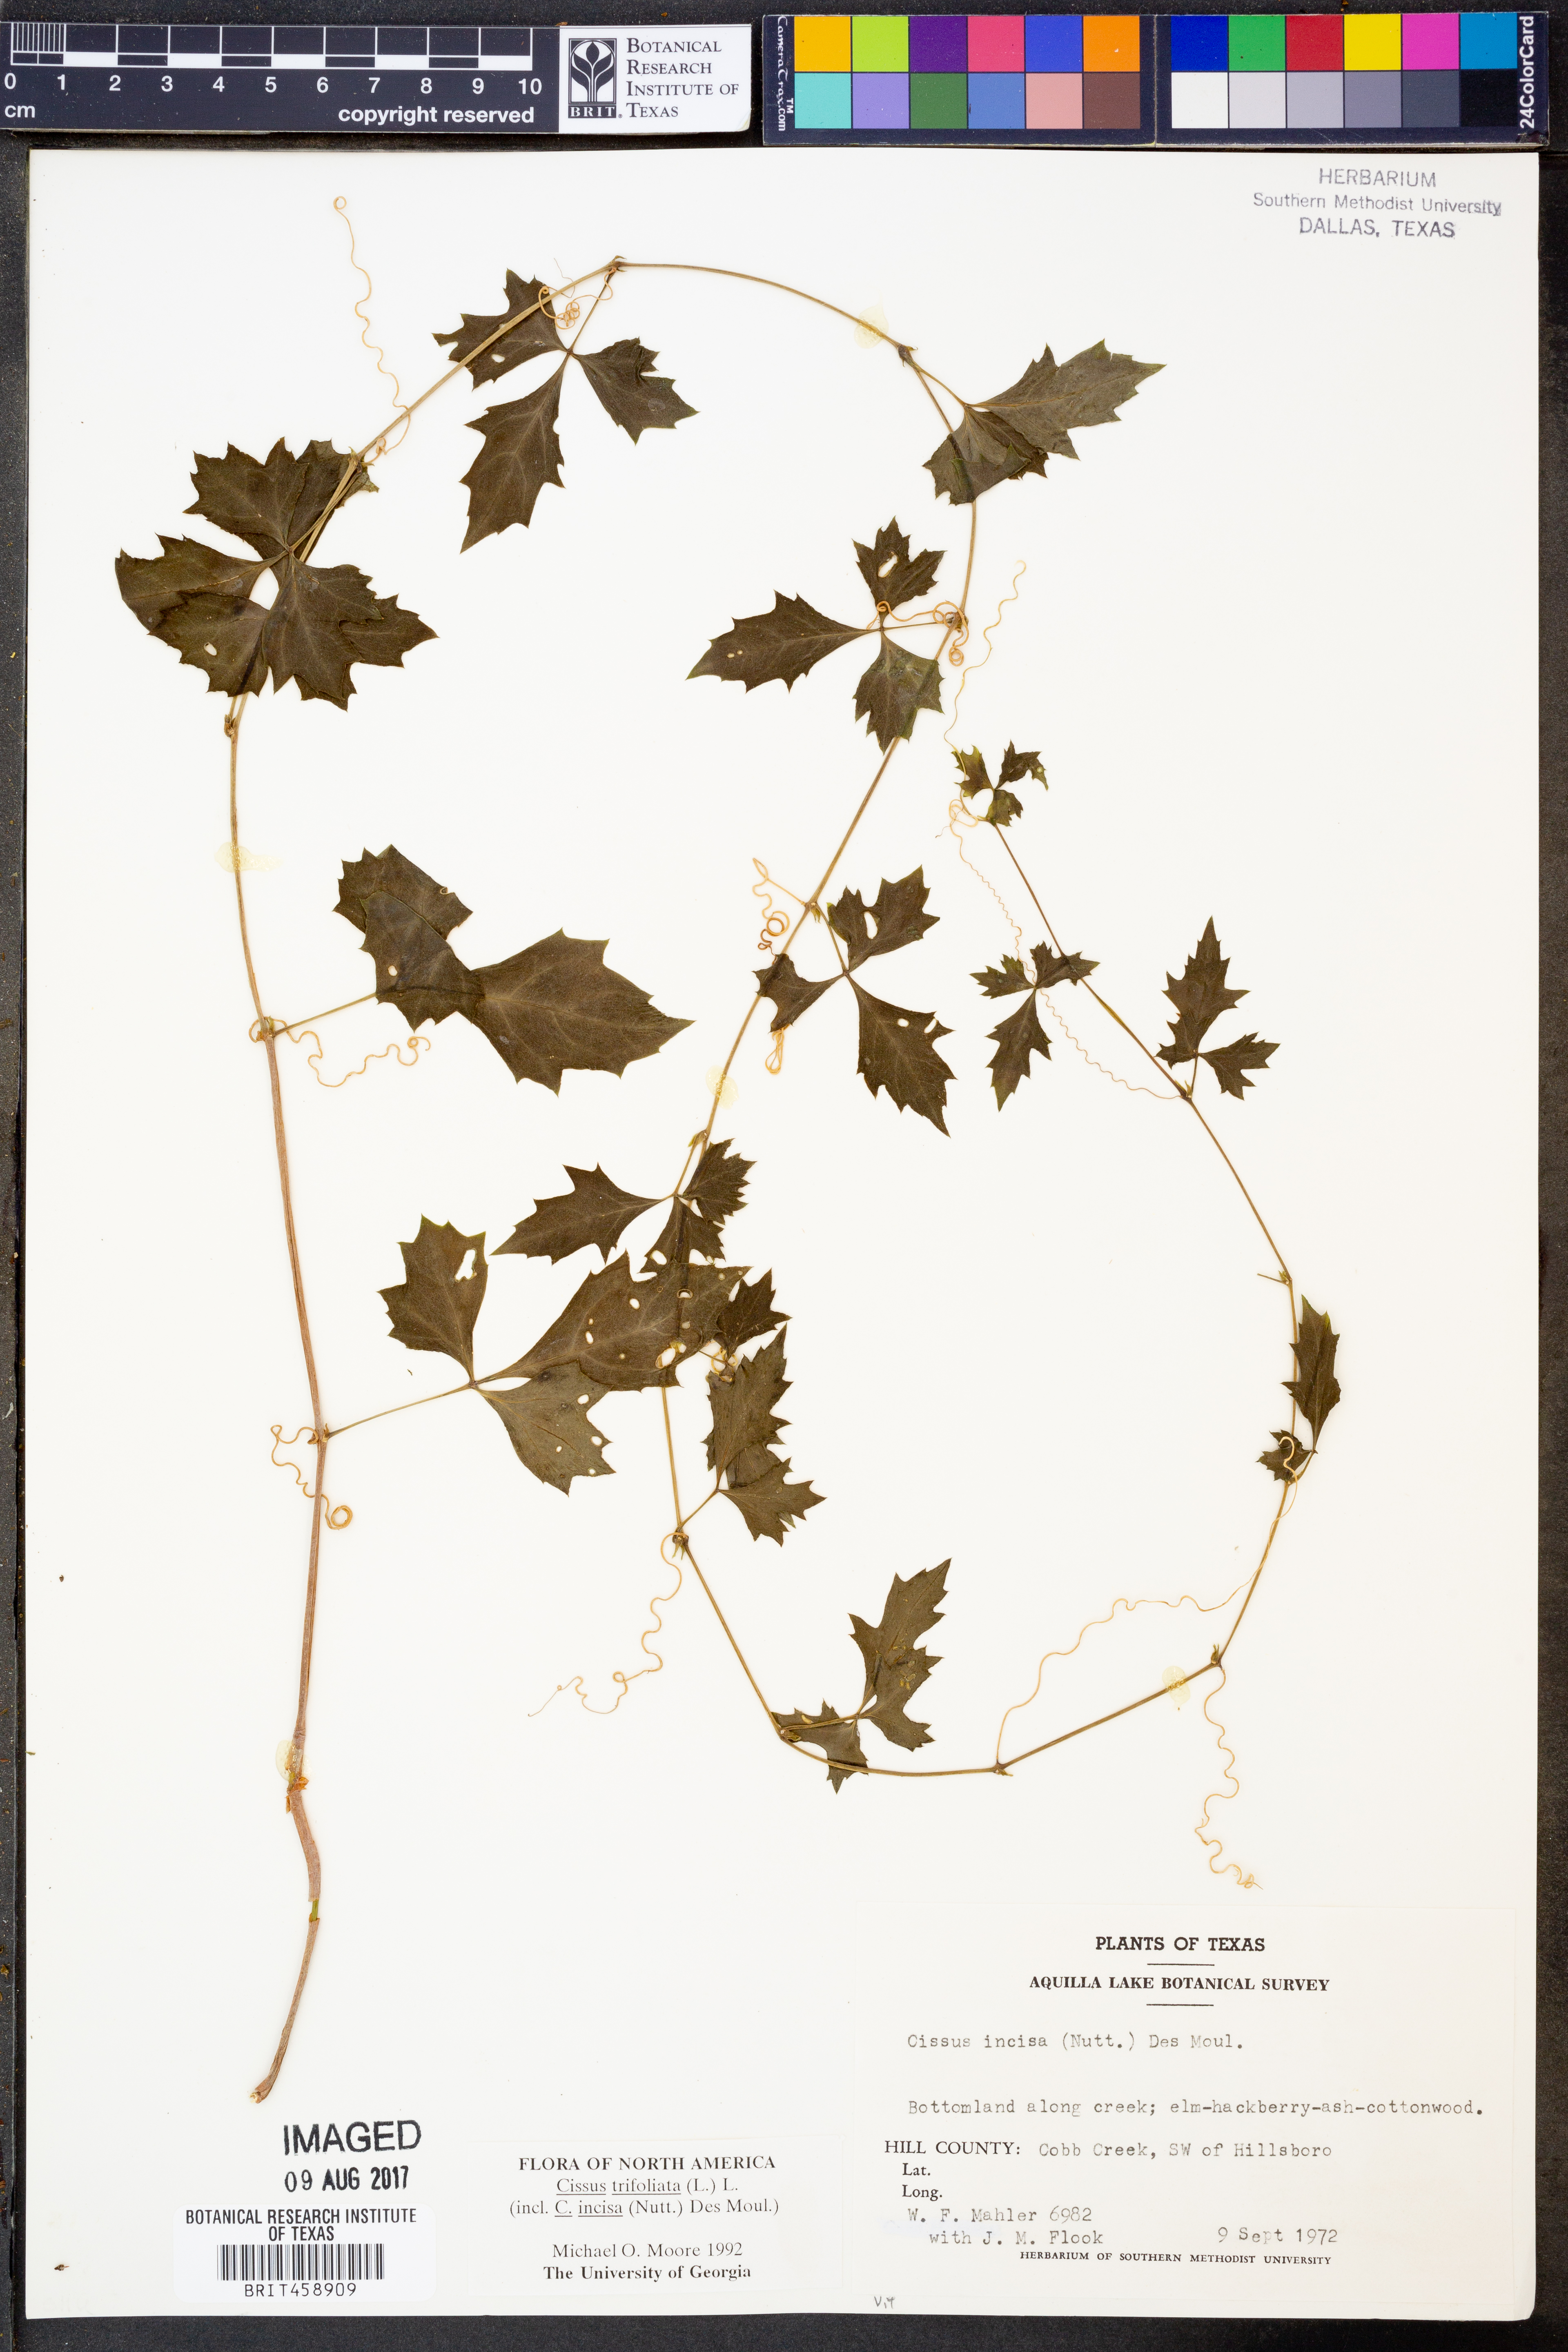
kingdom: Plantae
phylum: Tracheophyta
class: Magnoliopsida
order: Vitales
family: Vitaceae
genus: Cissus
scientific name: Cissus trifoliata
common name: Vine-sorrel
